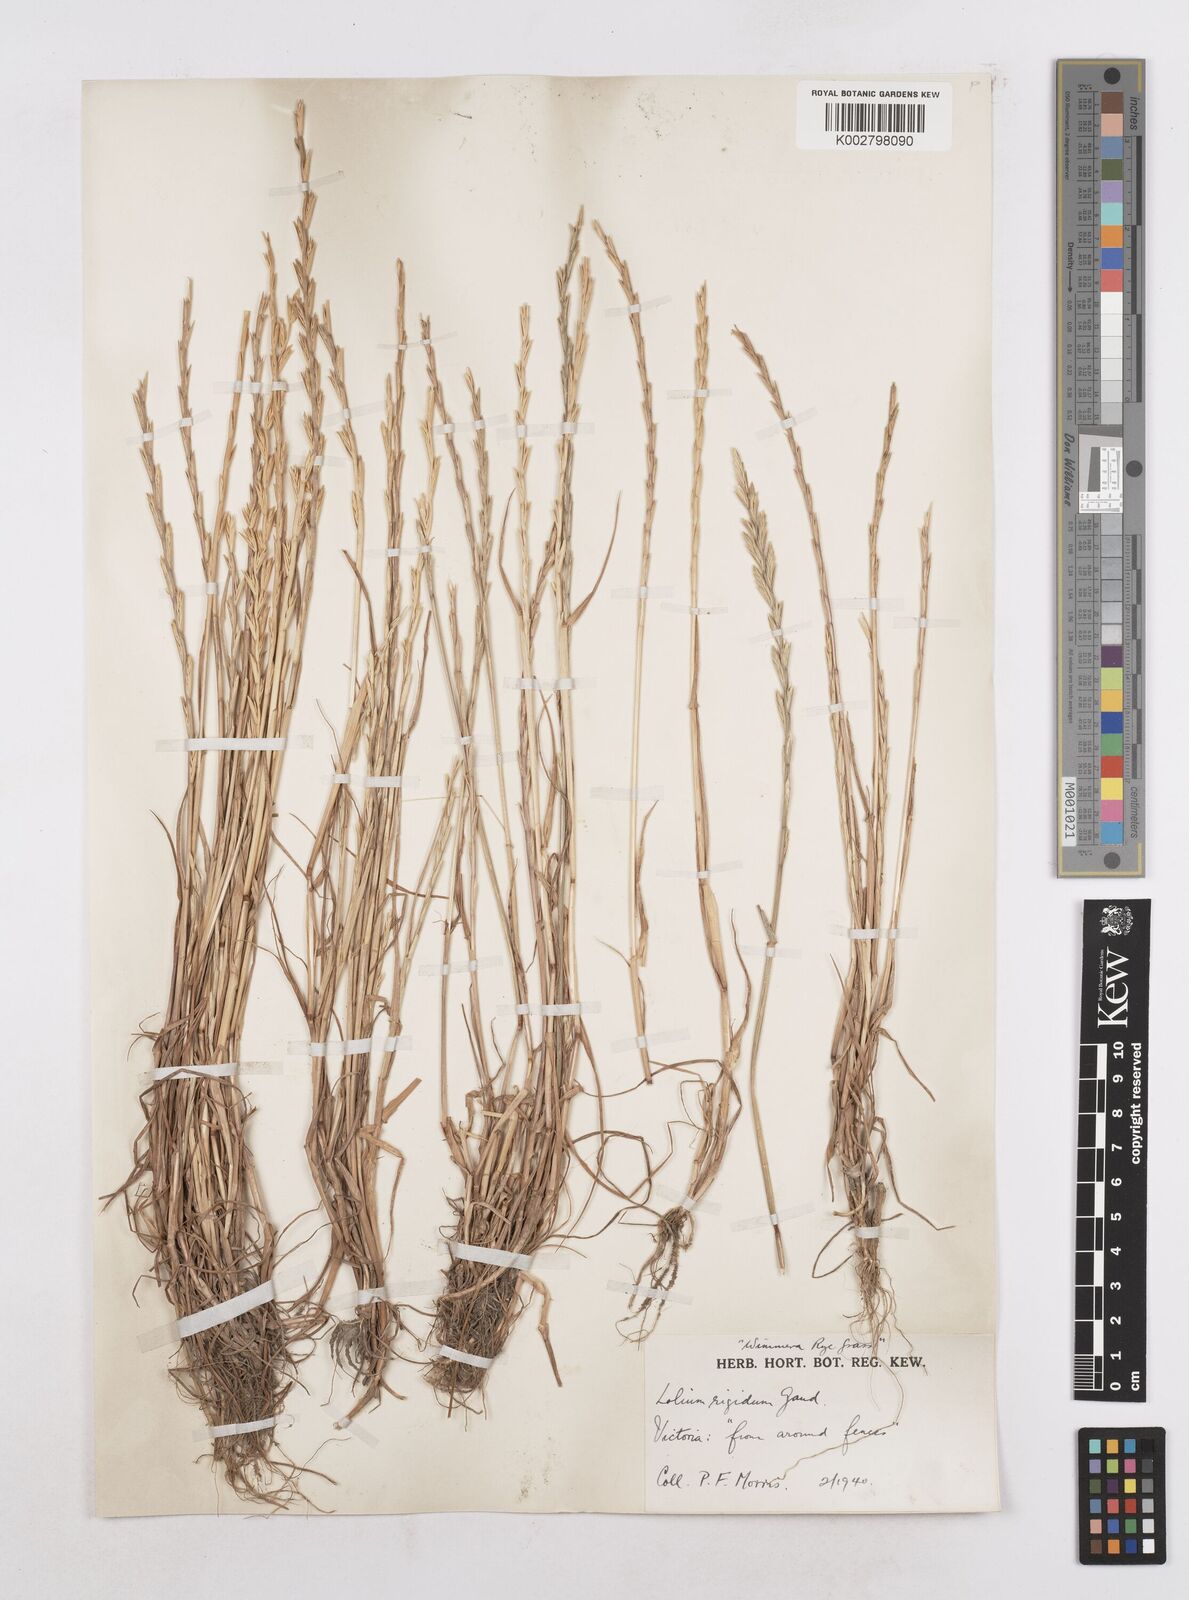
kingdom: Plantae
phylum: Tracheophyta
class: Liliopsida
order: Poales
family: Poaceae
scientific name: Poaceae
